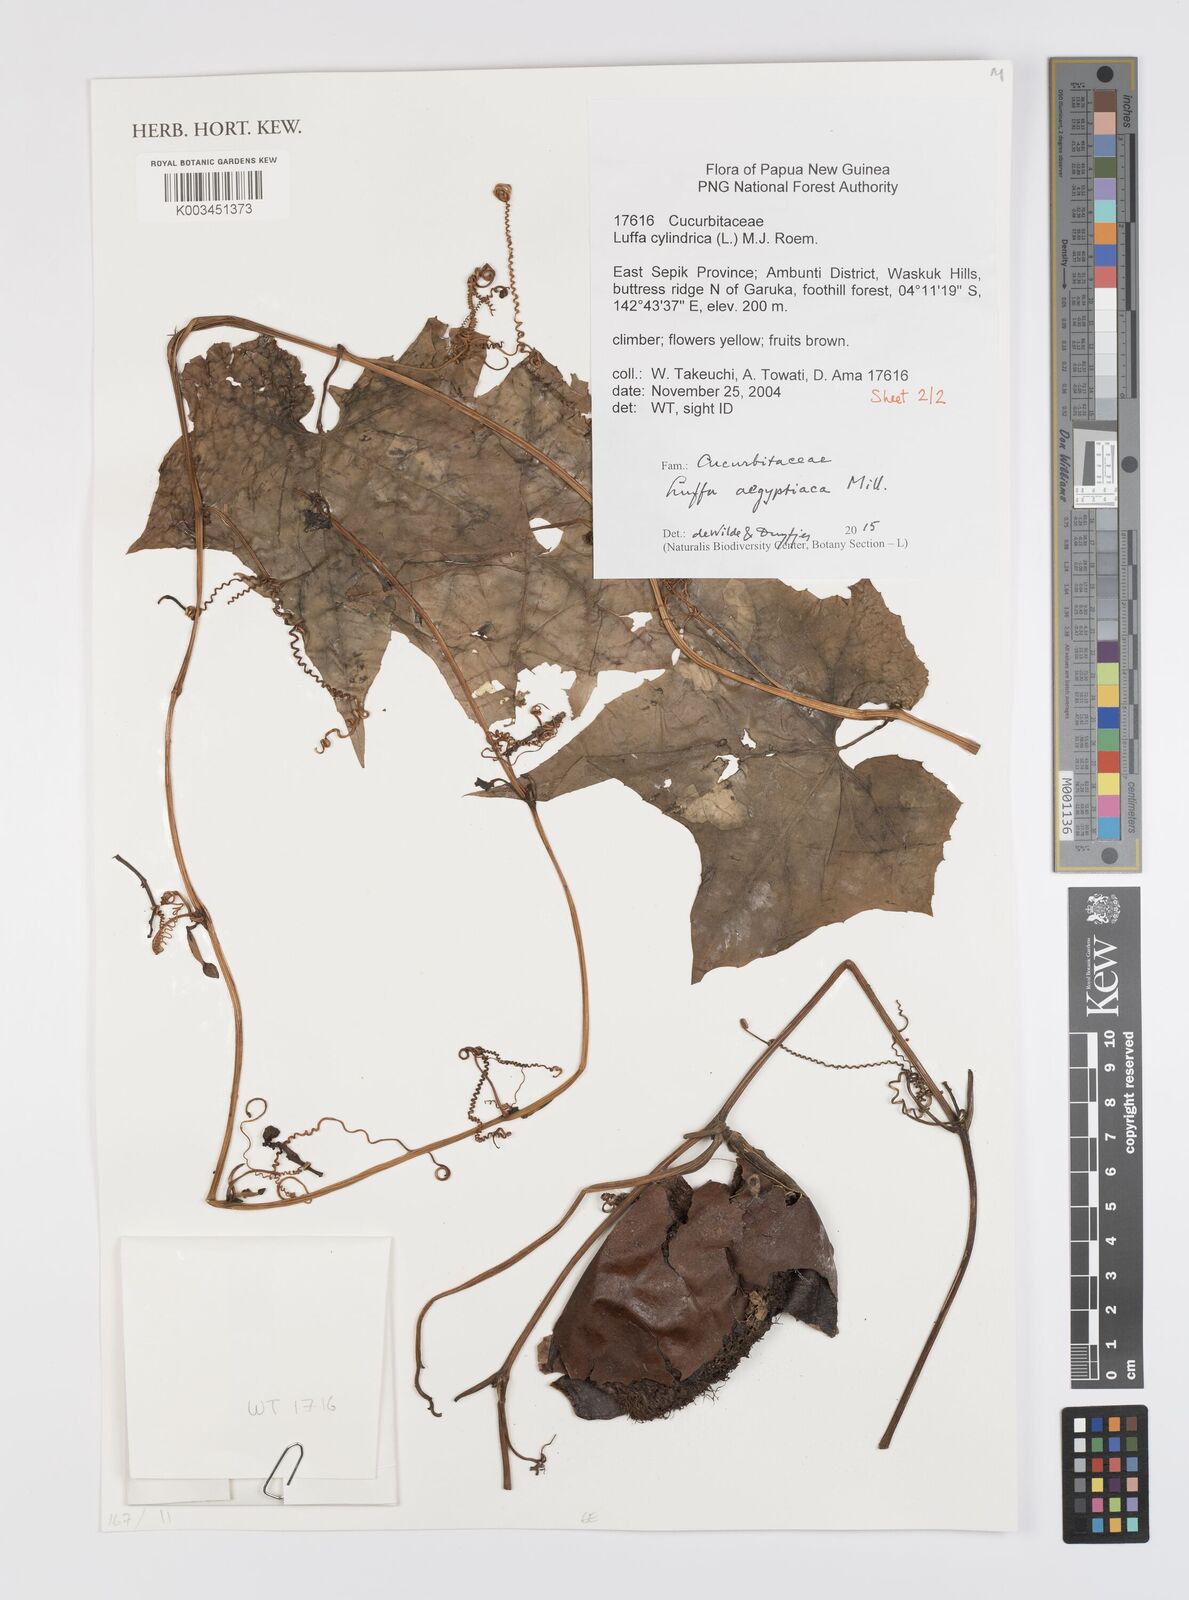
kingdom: Plantae
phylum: Tracheophyta
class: Magnoliopsida
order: Cucurbitales
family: Cucurbitaceae
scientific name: Cucurbitaceae
